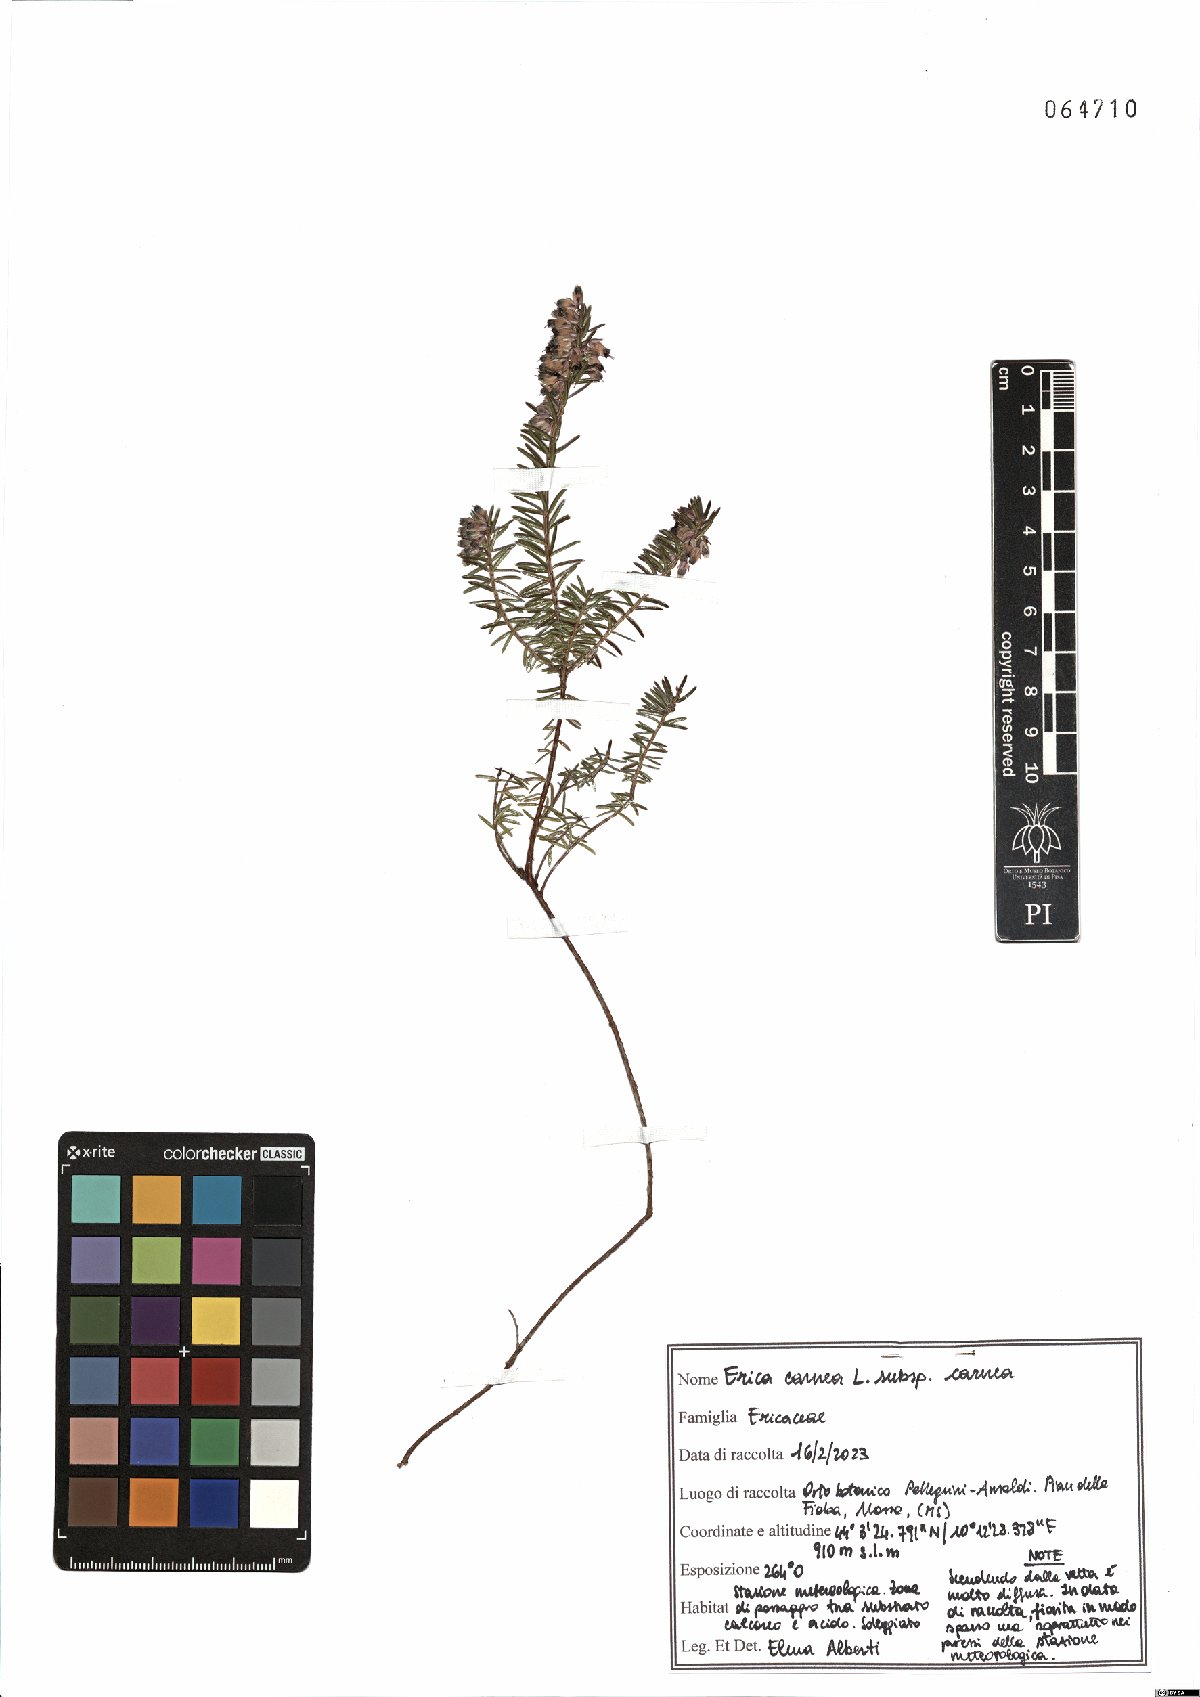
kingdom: Plantae
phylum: Tracheophyta
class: Magnoliopsida
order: Ericales
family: Ericaceae
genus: Erica
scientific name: Erica carnea
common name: Winter heath
